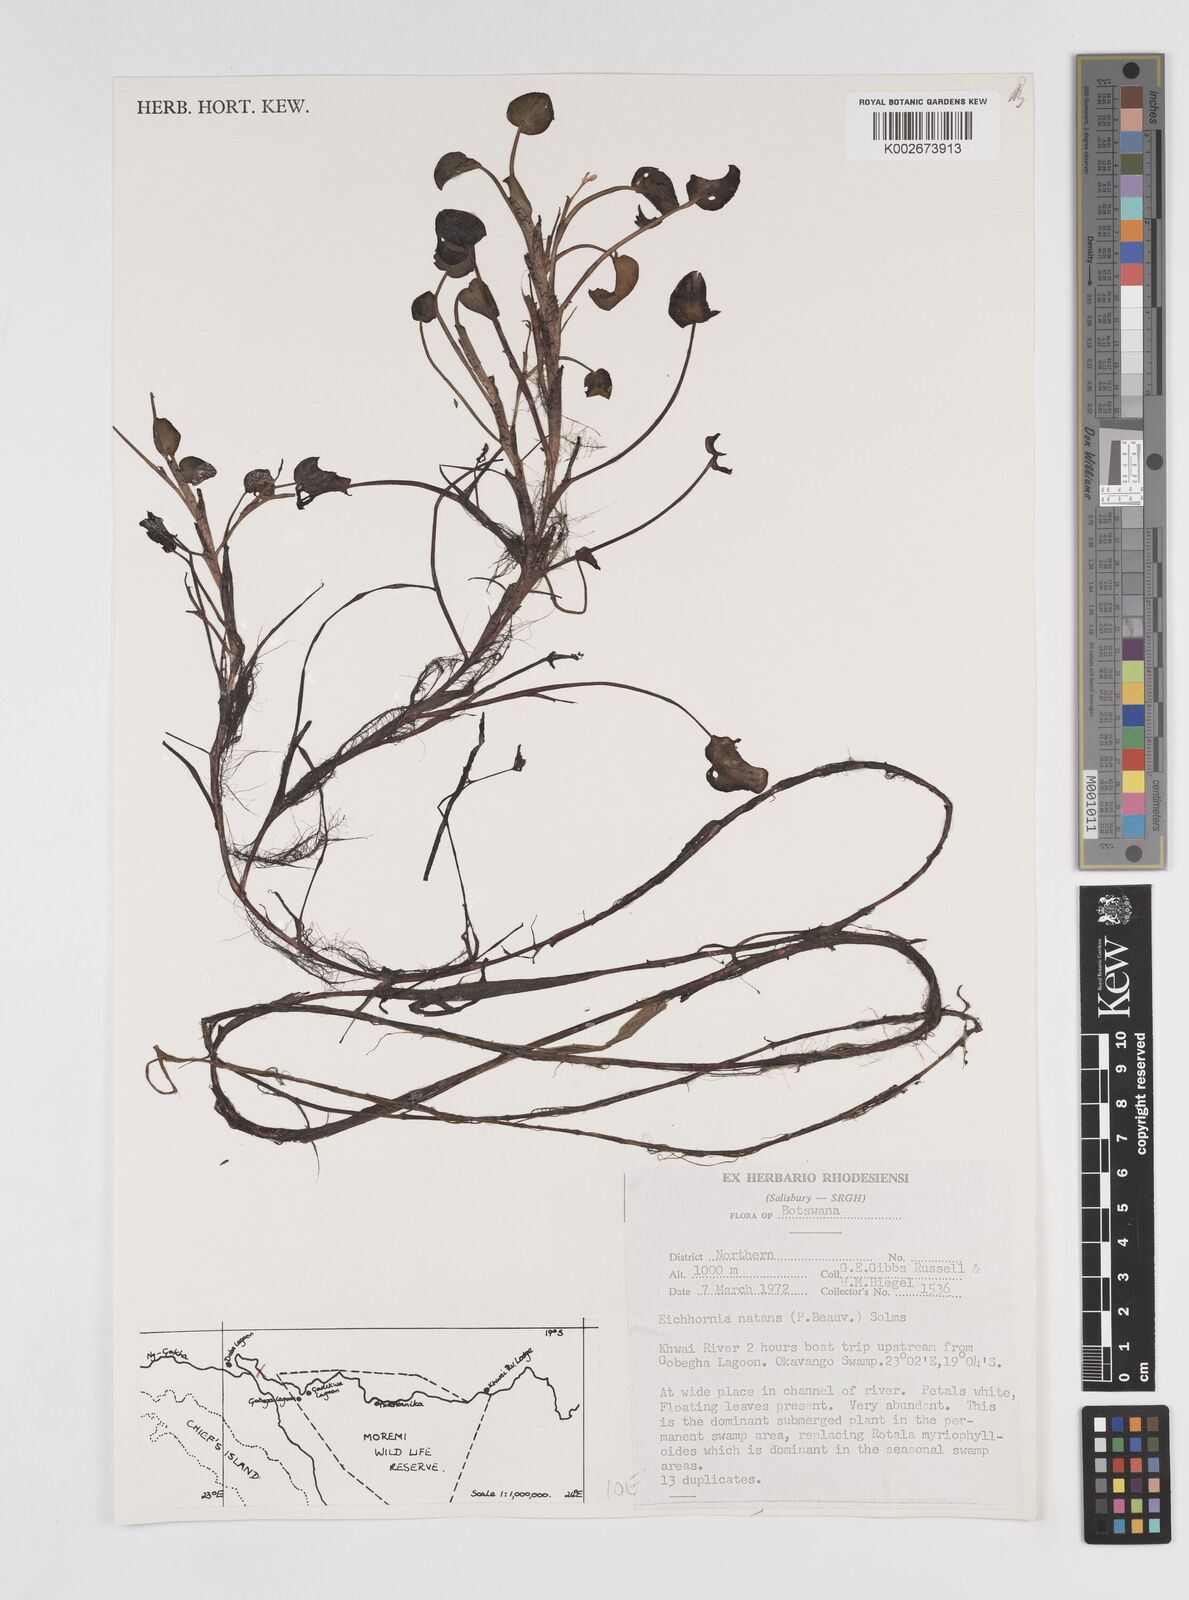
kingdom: Plantae
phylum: Tracheophyta
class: Liliopsida
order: Commelinales
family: Pontederiaceae
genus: Pontederia
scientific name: Pontederia natans
